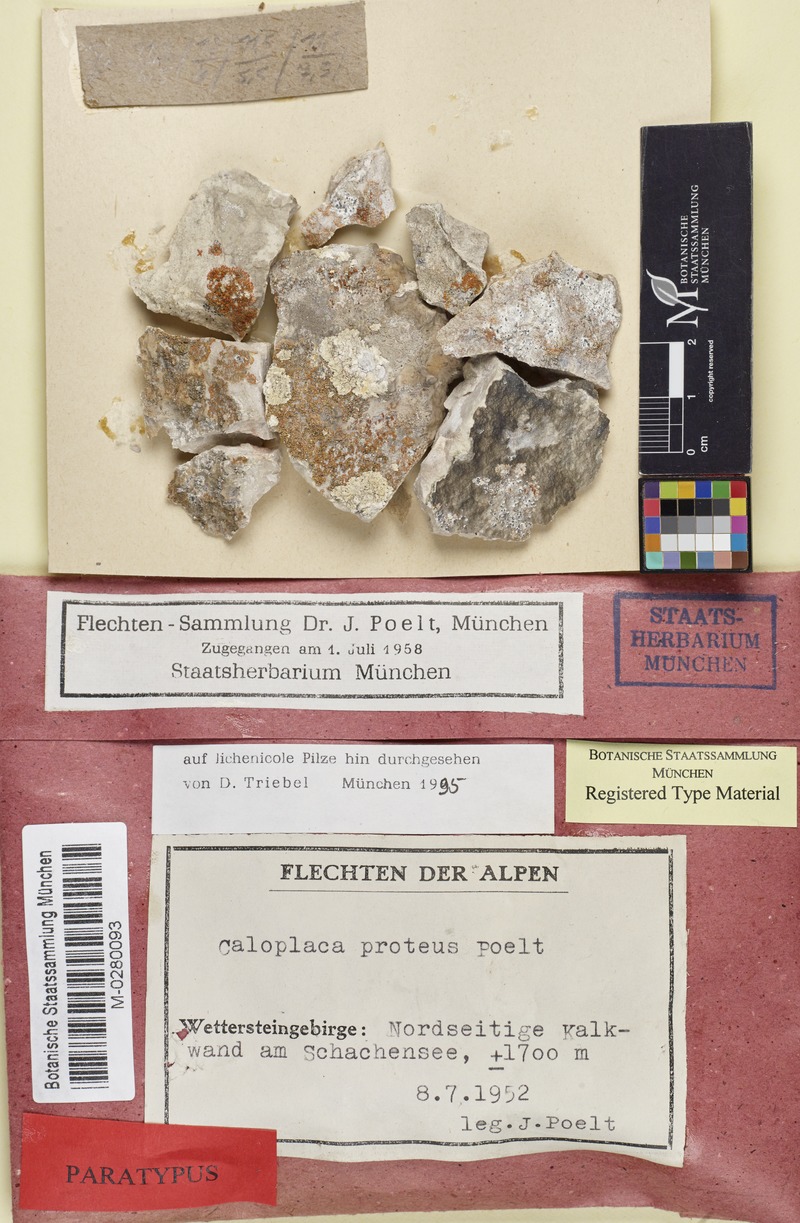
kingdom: Fungi
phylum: Ascomycota
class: Lecanoromycetes
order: Teloschistales
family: Teloschistaceae
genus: Leproplaca
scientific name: Leproplaca proteus
